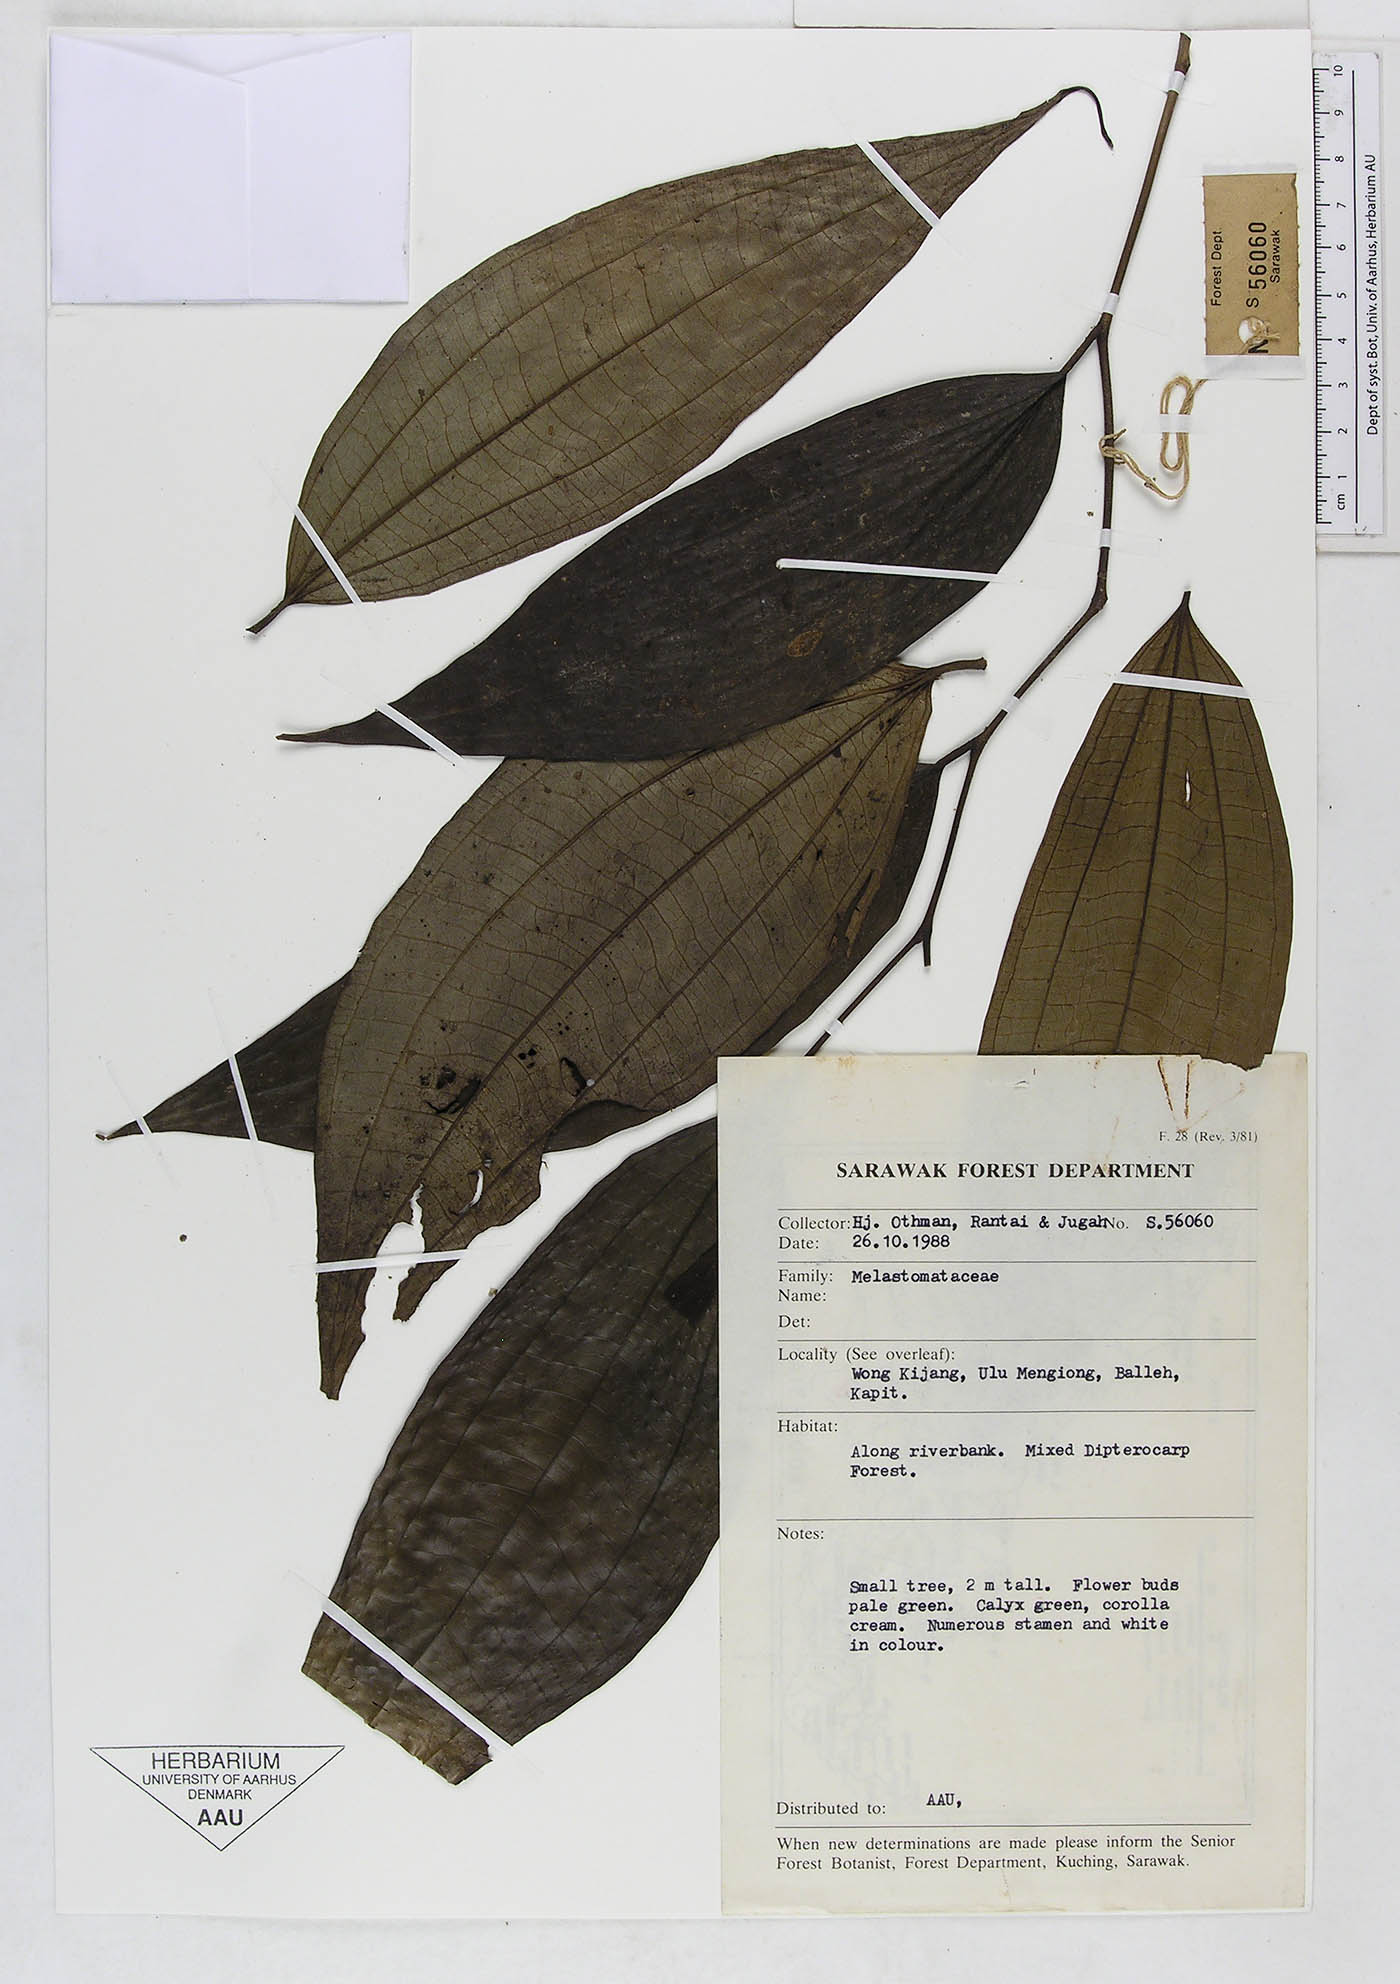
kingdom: Plantae
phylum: Tracheophyta
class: Magnoliopsida
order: Myrtales
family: Melastomataceae
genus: Driessenia
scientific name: Driessenia
